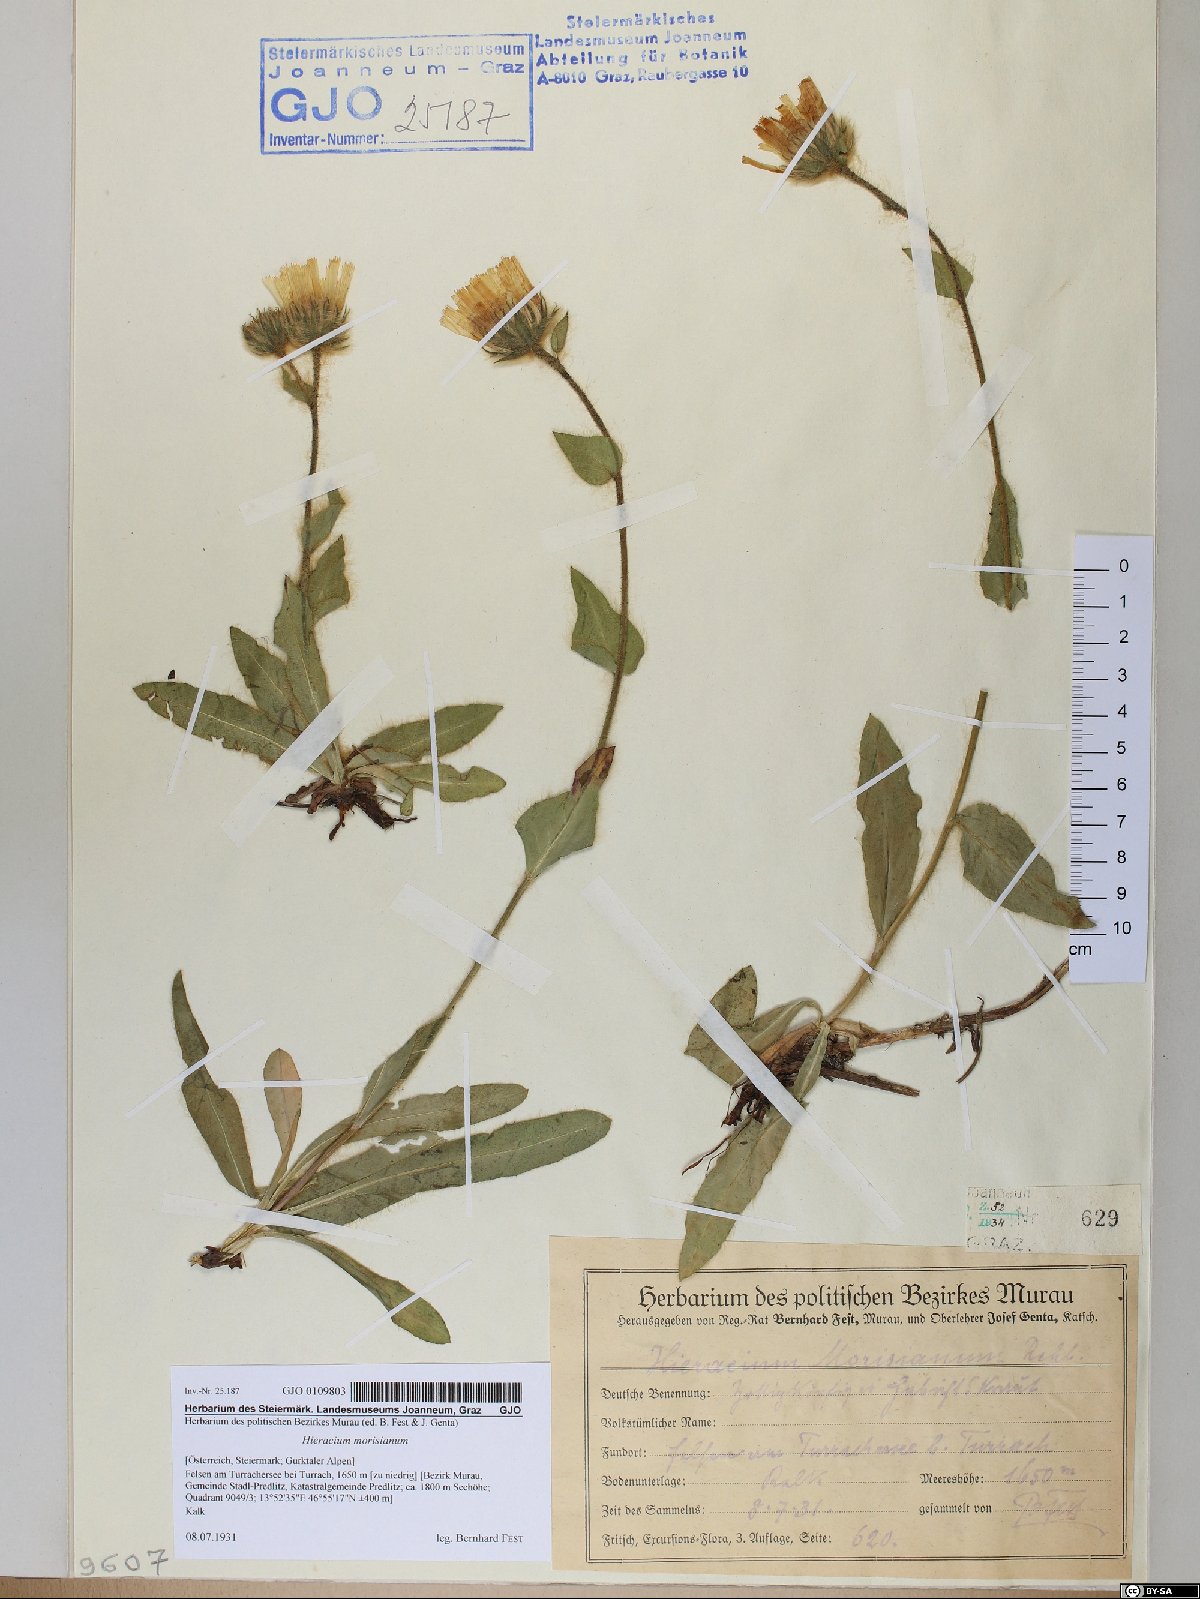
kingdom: Plantae
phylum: Tracheophyta
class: Magnoliopsida
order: Asterales
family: Asteraceae
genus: Hieracium
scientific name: Hieracium pilosum
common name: Fimbriate-pitted hawkweed
